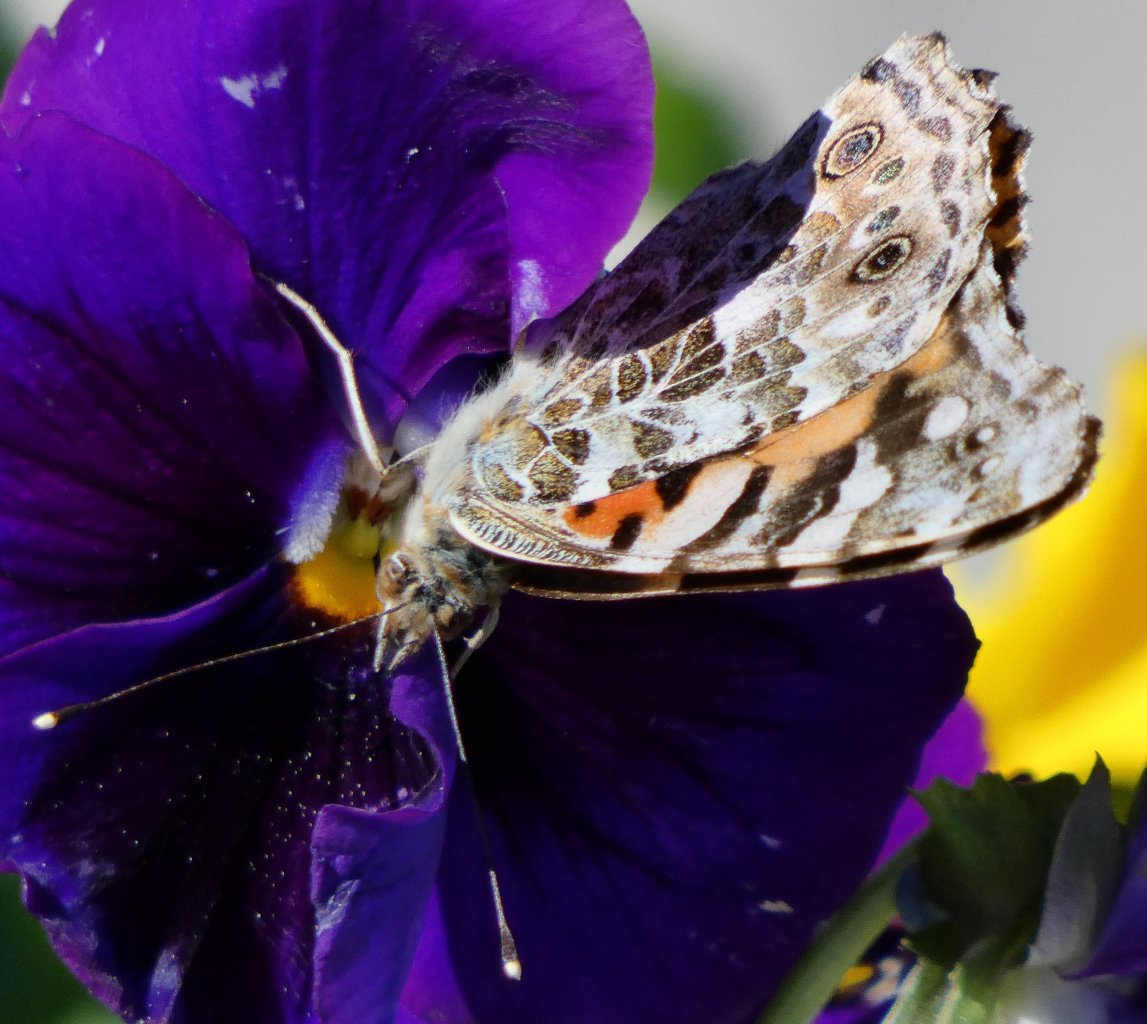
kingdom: Animalia
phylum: Arthropoda
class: Insecta
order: Lepidoptera
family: Nymphalidae
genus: Vanessa
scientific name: Vanessa cardui
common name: Painted Lady
